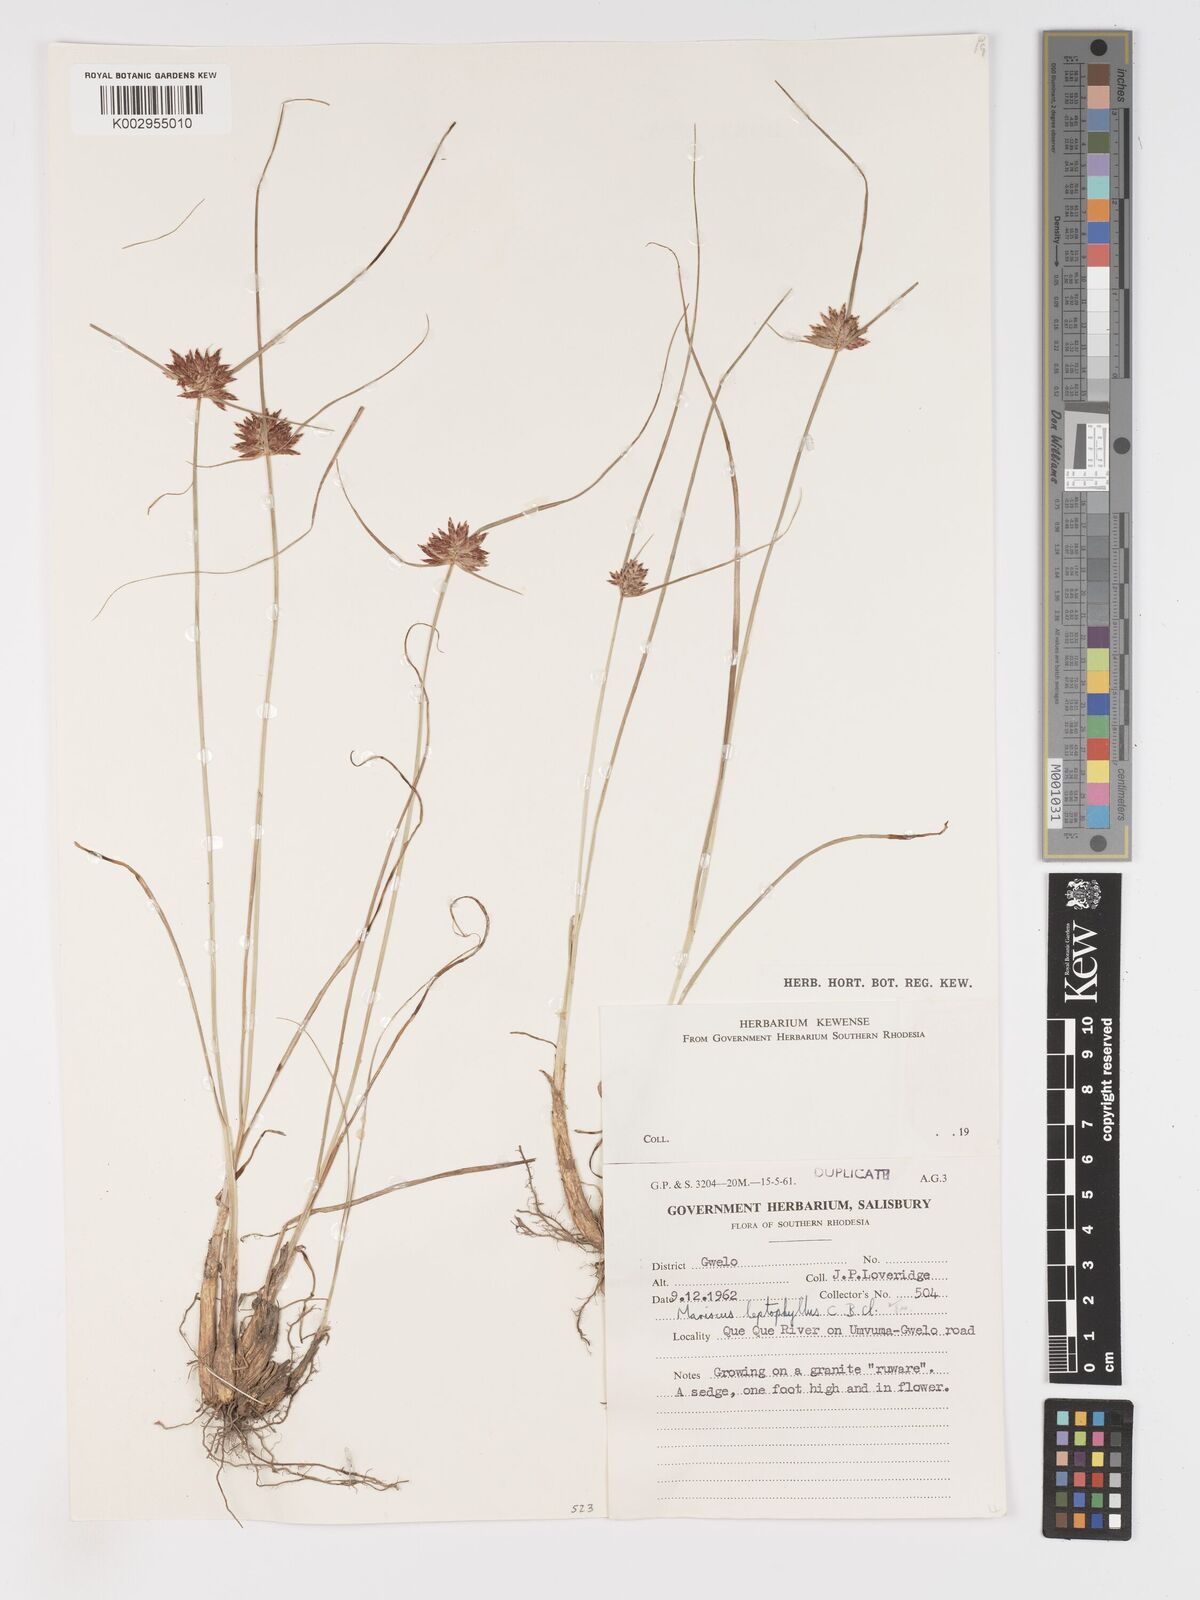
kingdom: Plantae
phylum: Tracheophyta
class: Liliopsida
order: Poales
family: Cyperaceae
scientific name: Cyperaceae
